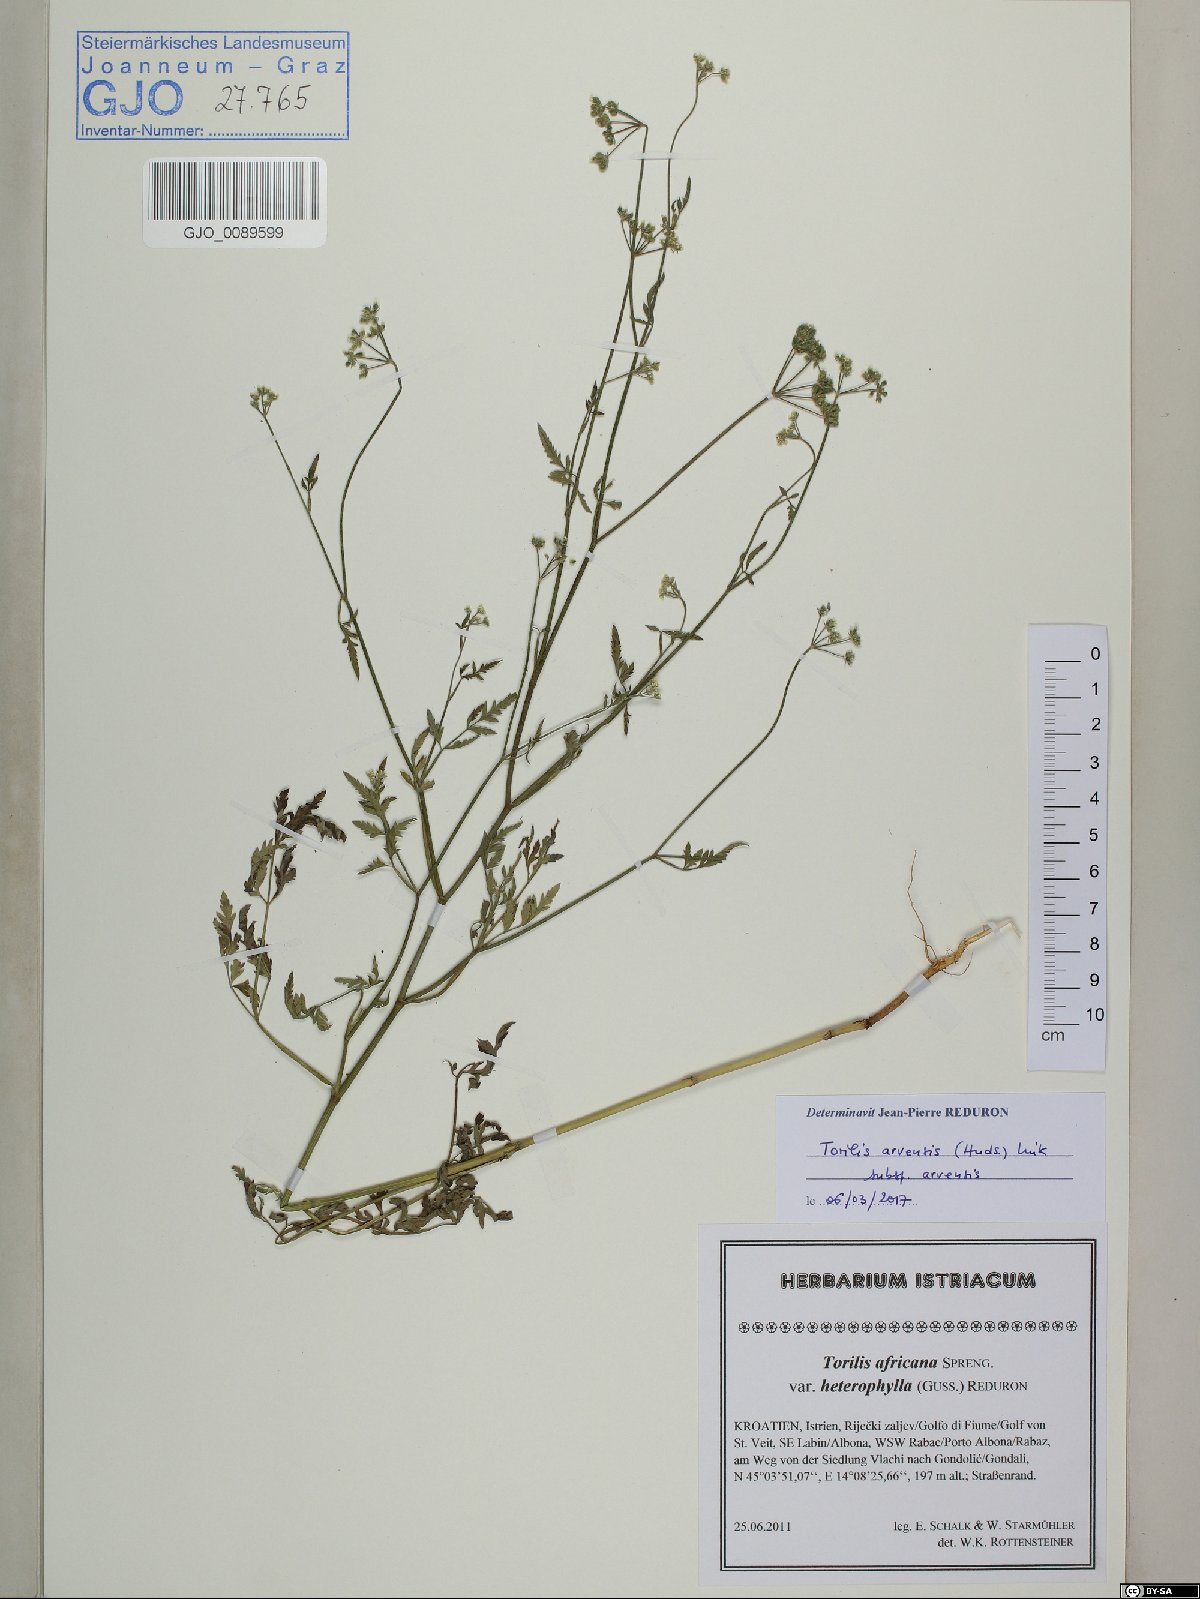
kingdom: Plantae
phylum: Tracheophyta
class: Magnoliopsida
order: Apiales
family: Apiaceae
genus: Torilis
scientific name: Torilis arvensis
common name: Spreading hedge-parsley
